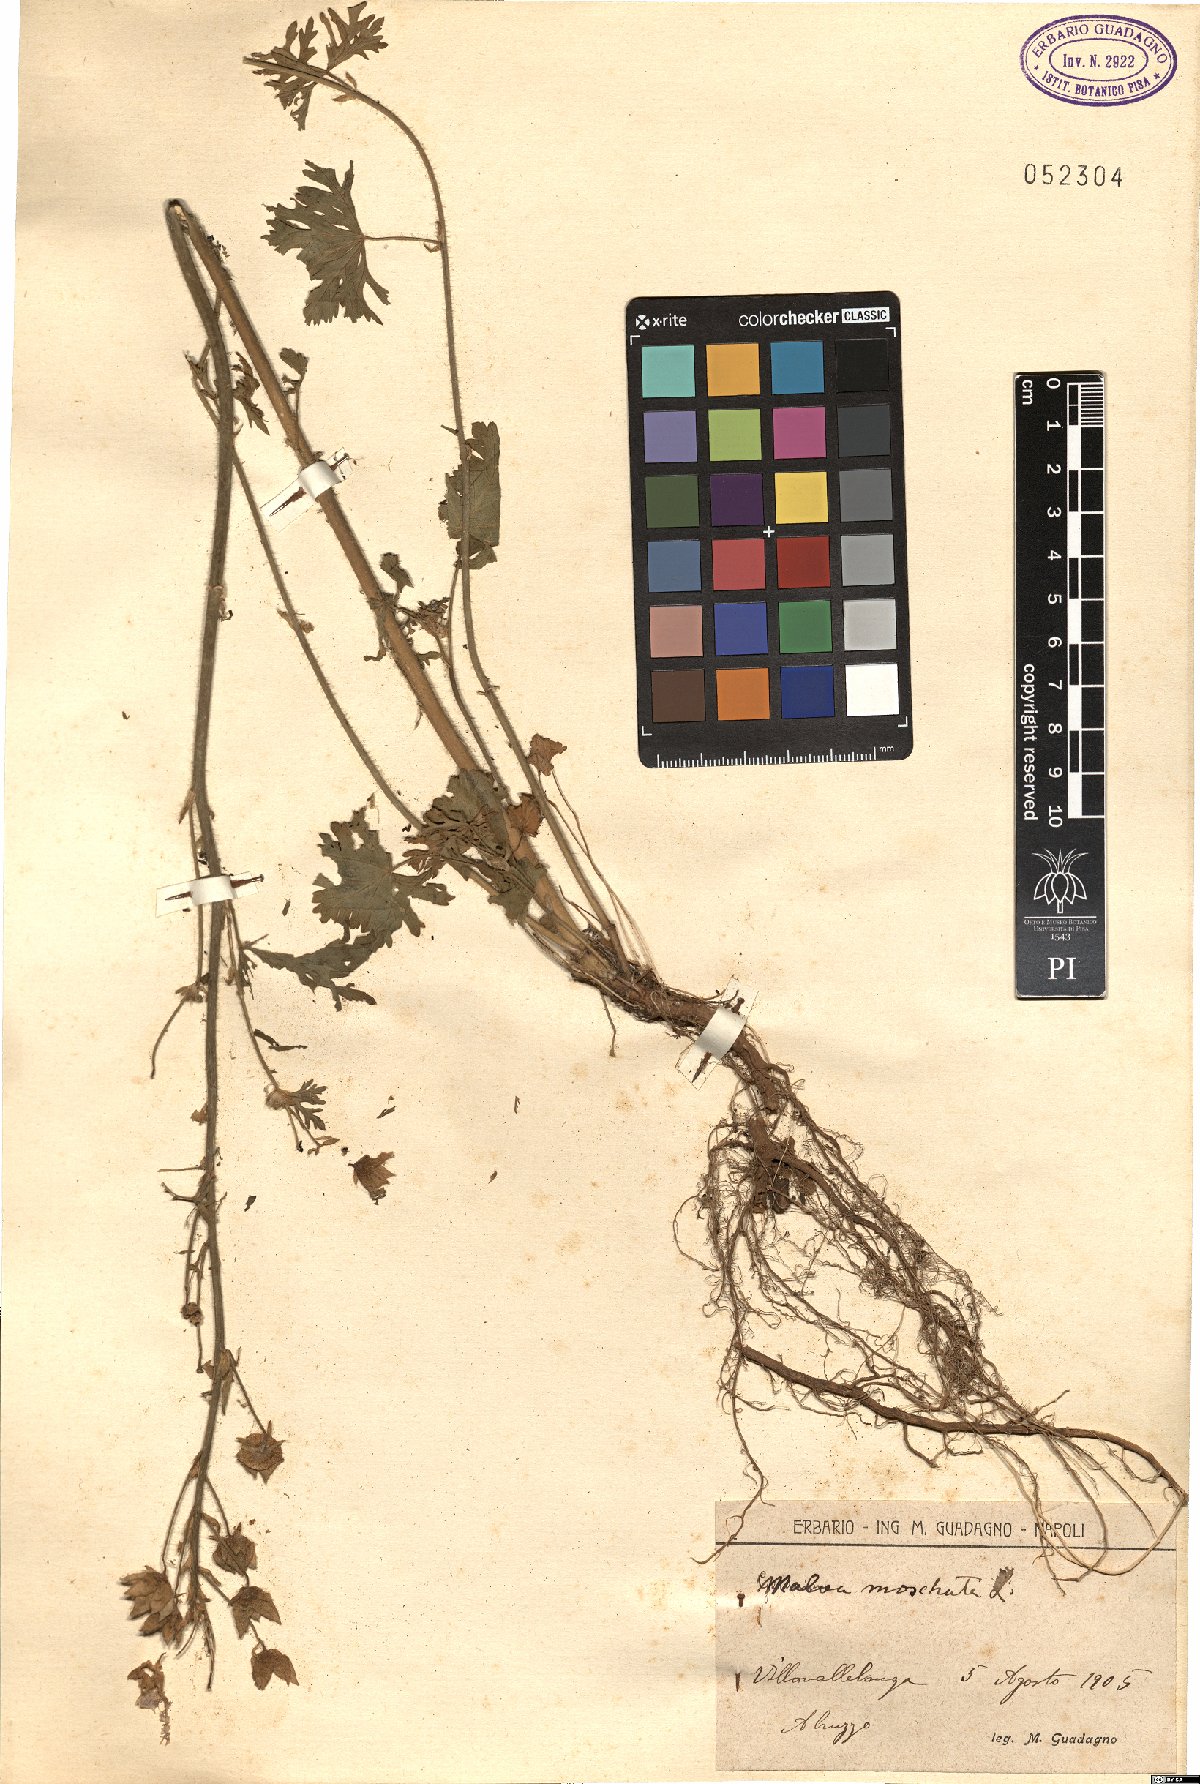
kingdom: Plantae
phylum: Tracheophyta
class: Magnoliopsida
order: Malvales
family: Malvaceae
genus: Malva
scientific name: Malva moschata
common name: Musk mallow
